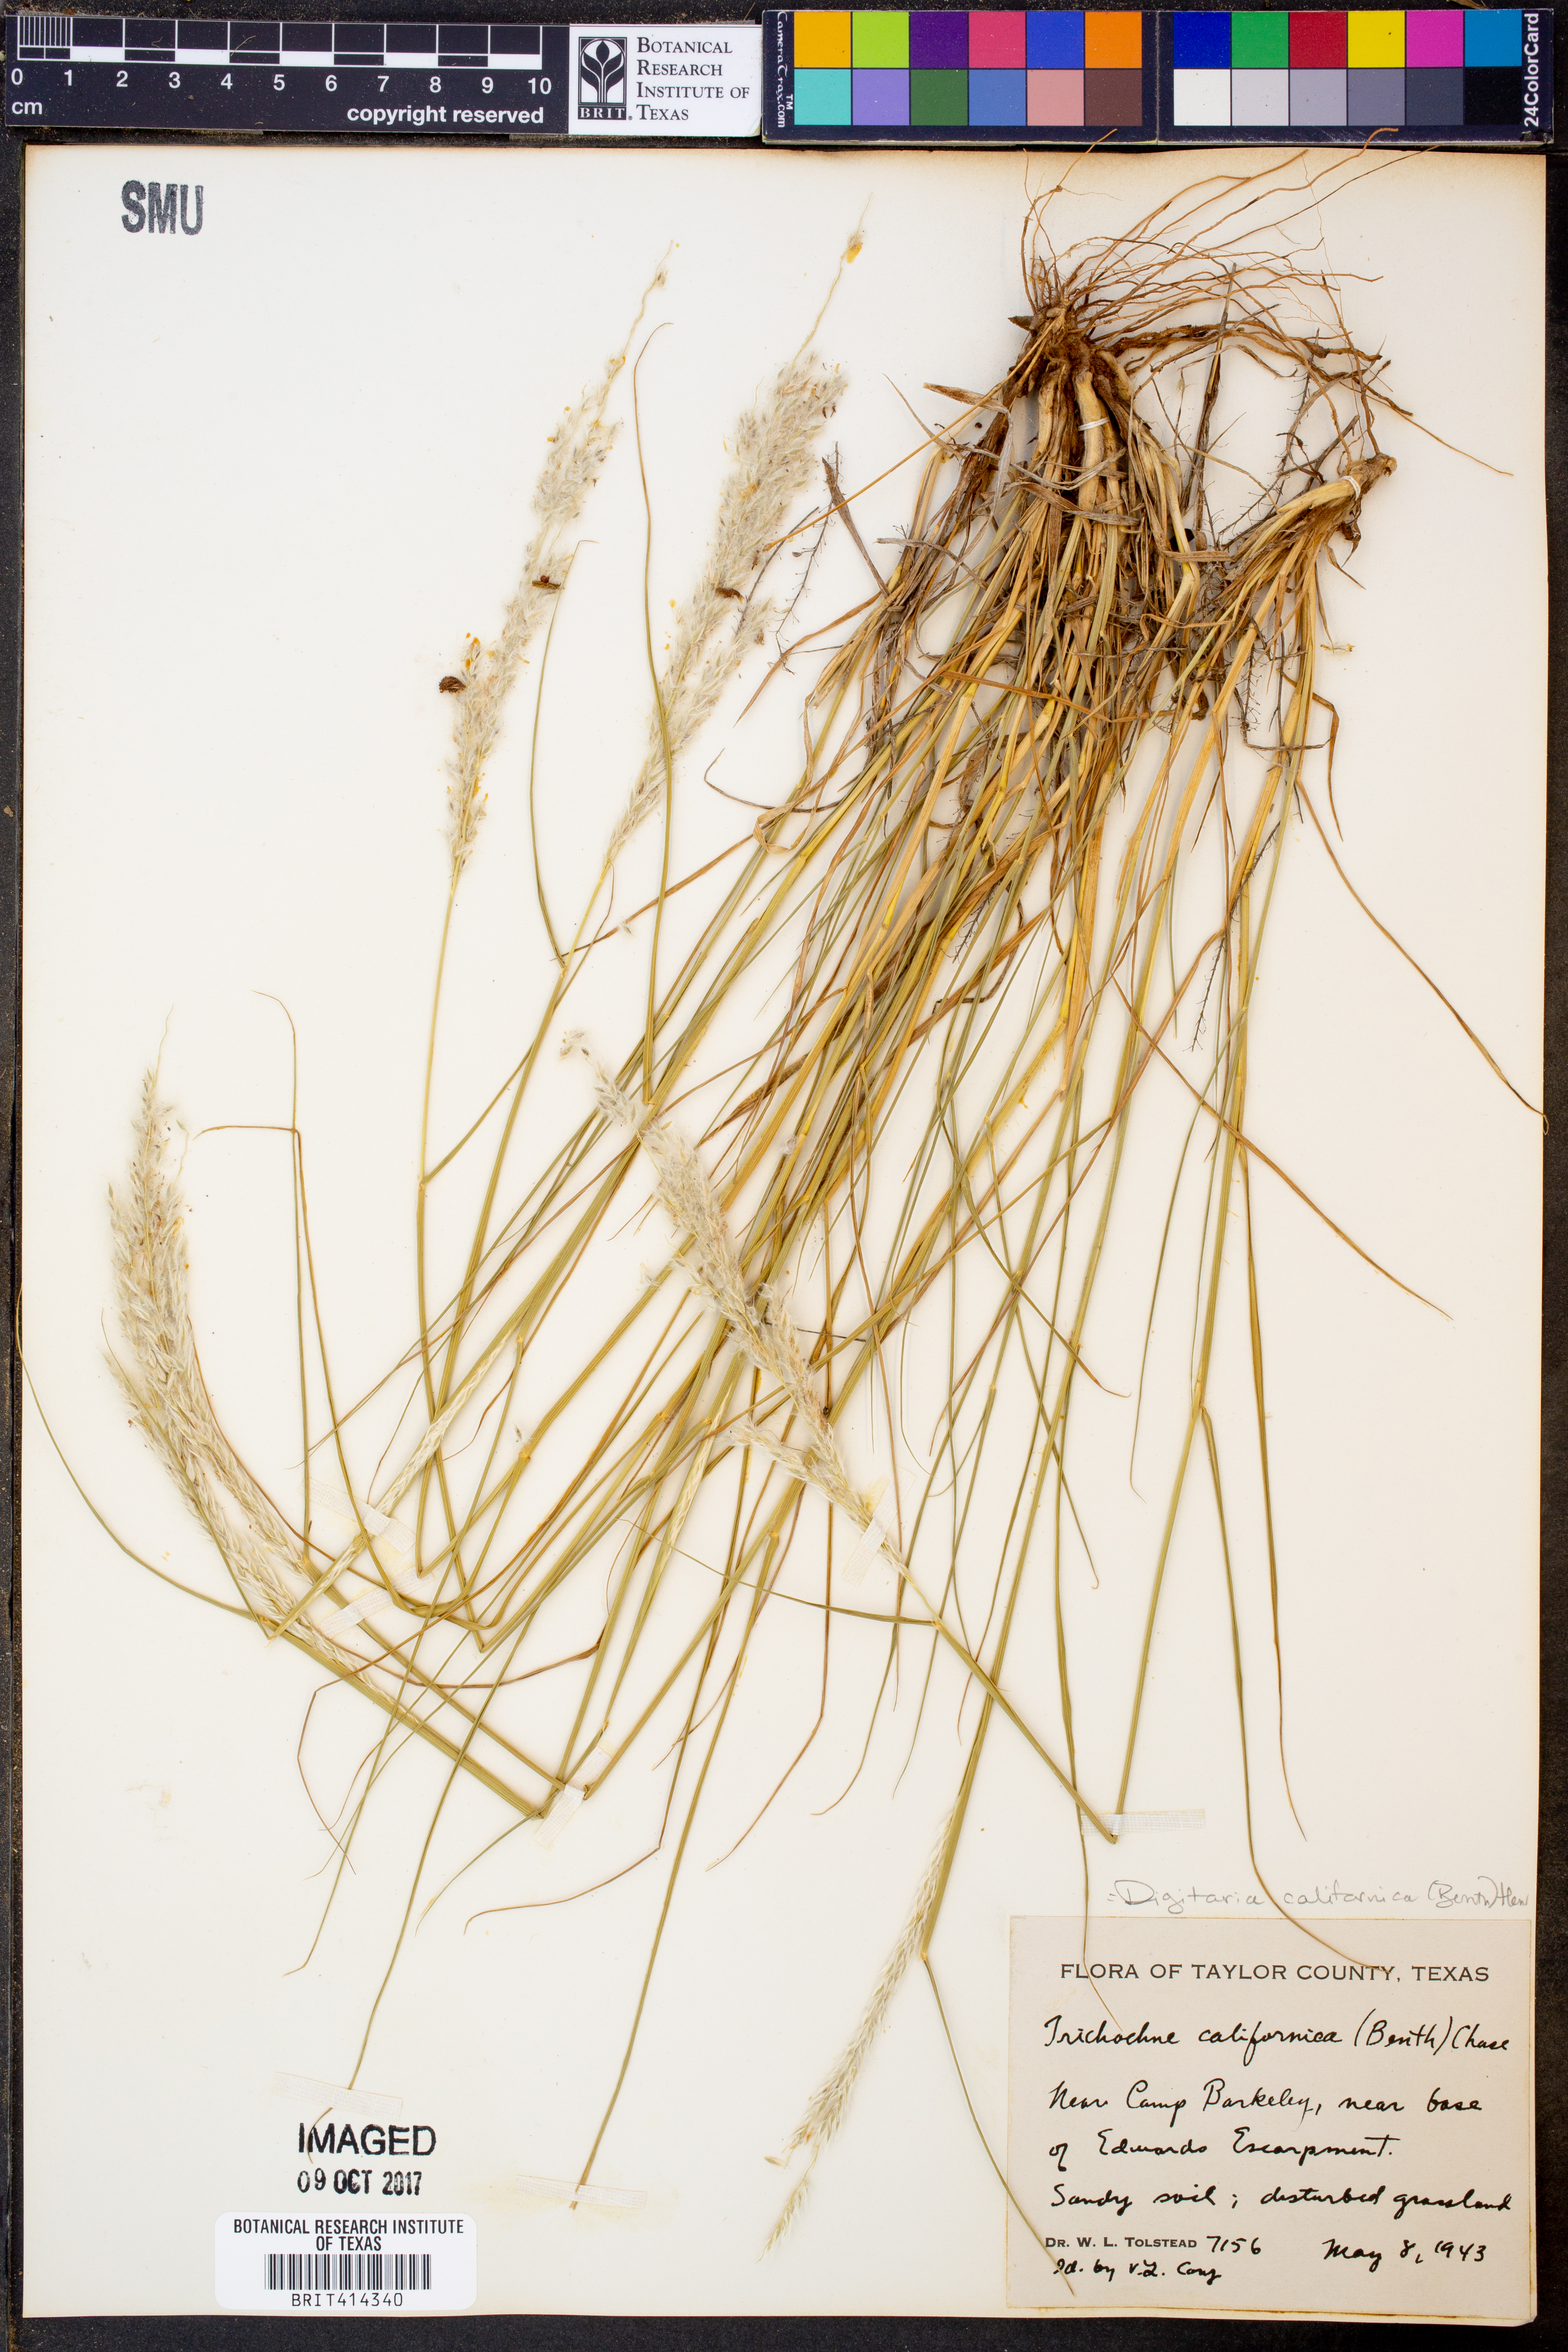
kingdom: Plantae
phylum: Tracheophyta
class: Liliopsida
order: Poales
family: Poaceae
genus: Digitaria
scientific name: Digitaria californica
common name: Arizona cottontop
